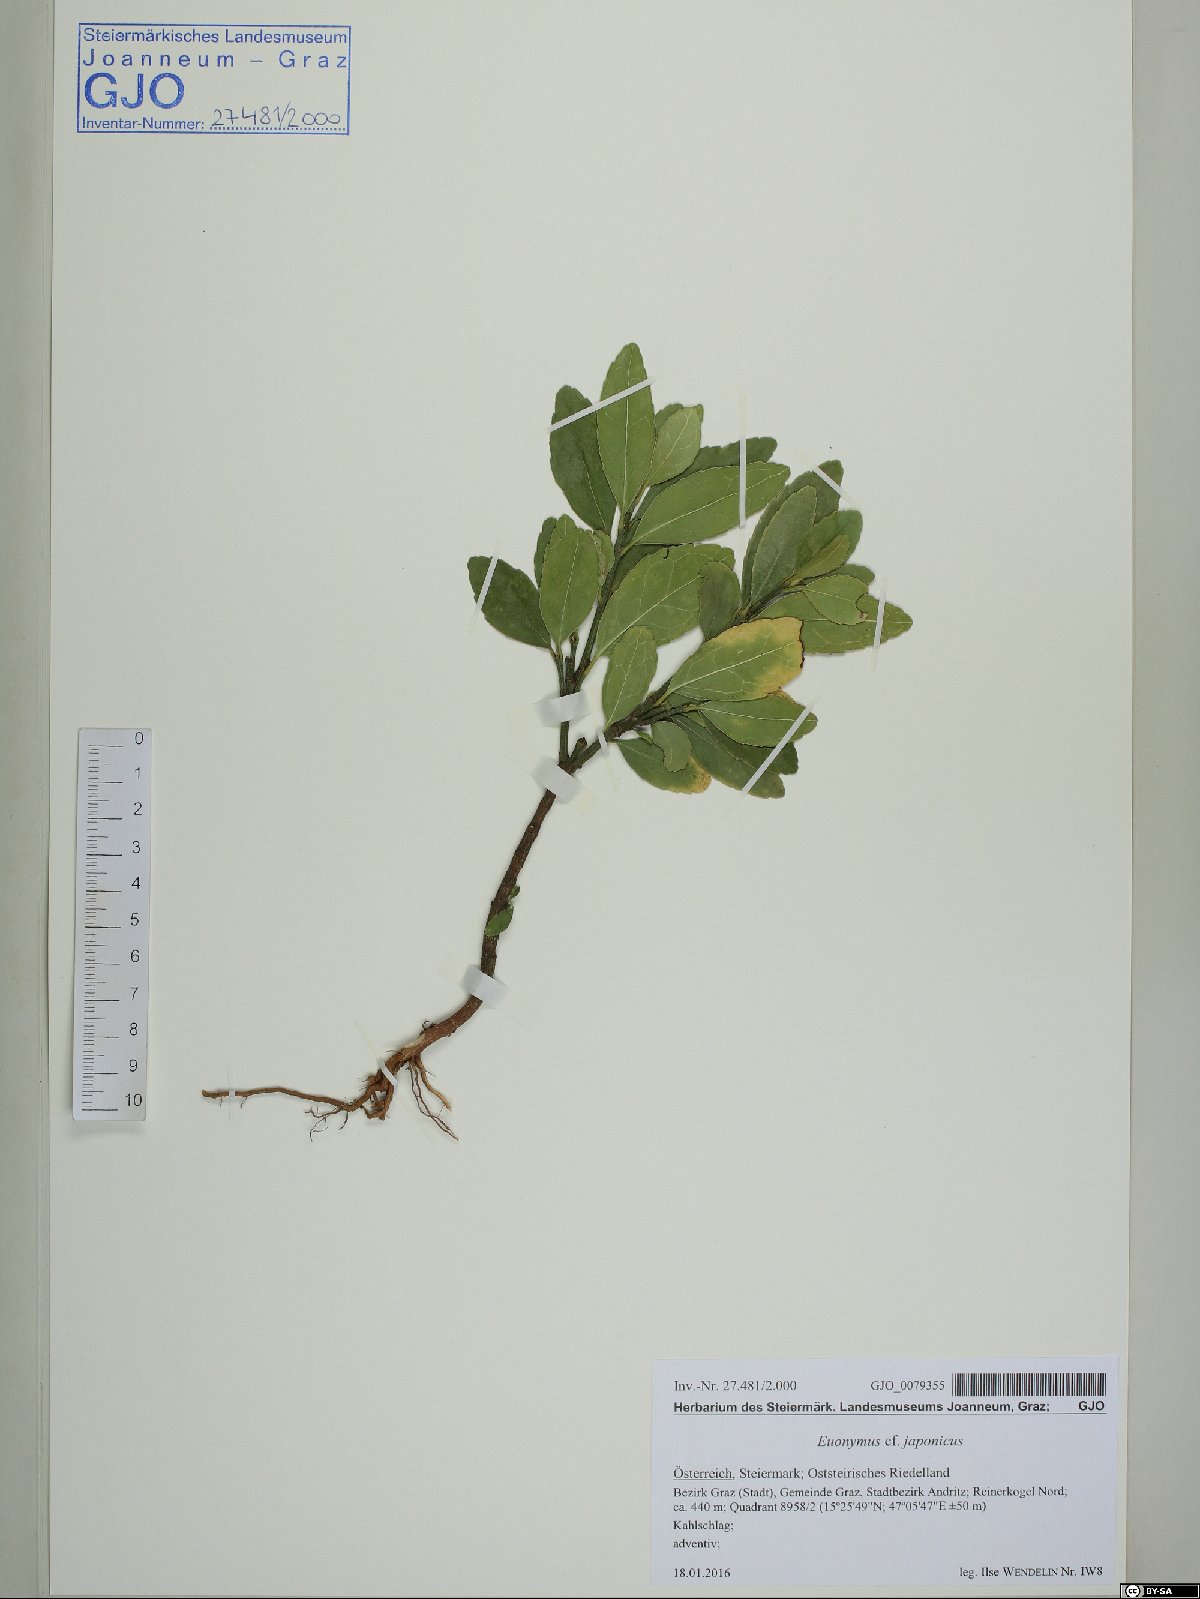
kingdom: Plantae
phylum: Tracheophyta
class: Magnoliopsida
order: Celastrales
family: Celastraceae
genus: Euonymus
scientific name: Euonymus fortunei
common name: Climbing euonymus
